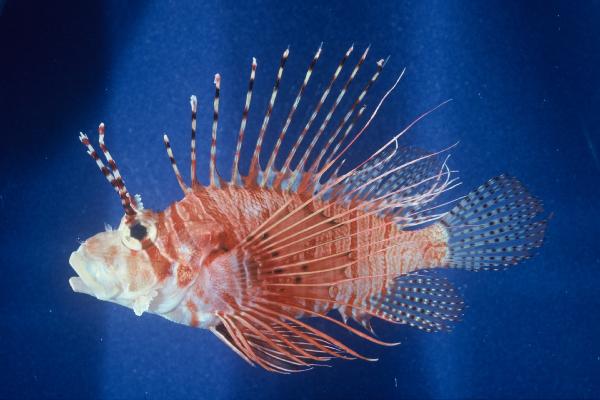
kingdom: Animalia
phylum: Chordata
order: Scorpaeniformes
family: Scorpaenidae
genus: Pterois
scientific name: Pterois antennata
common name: Spotfin lionfish
